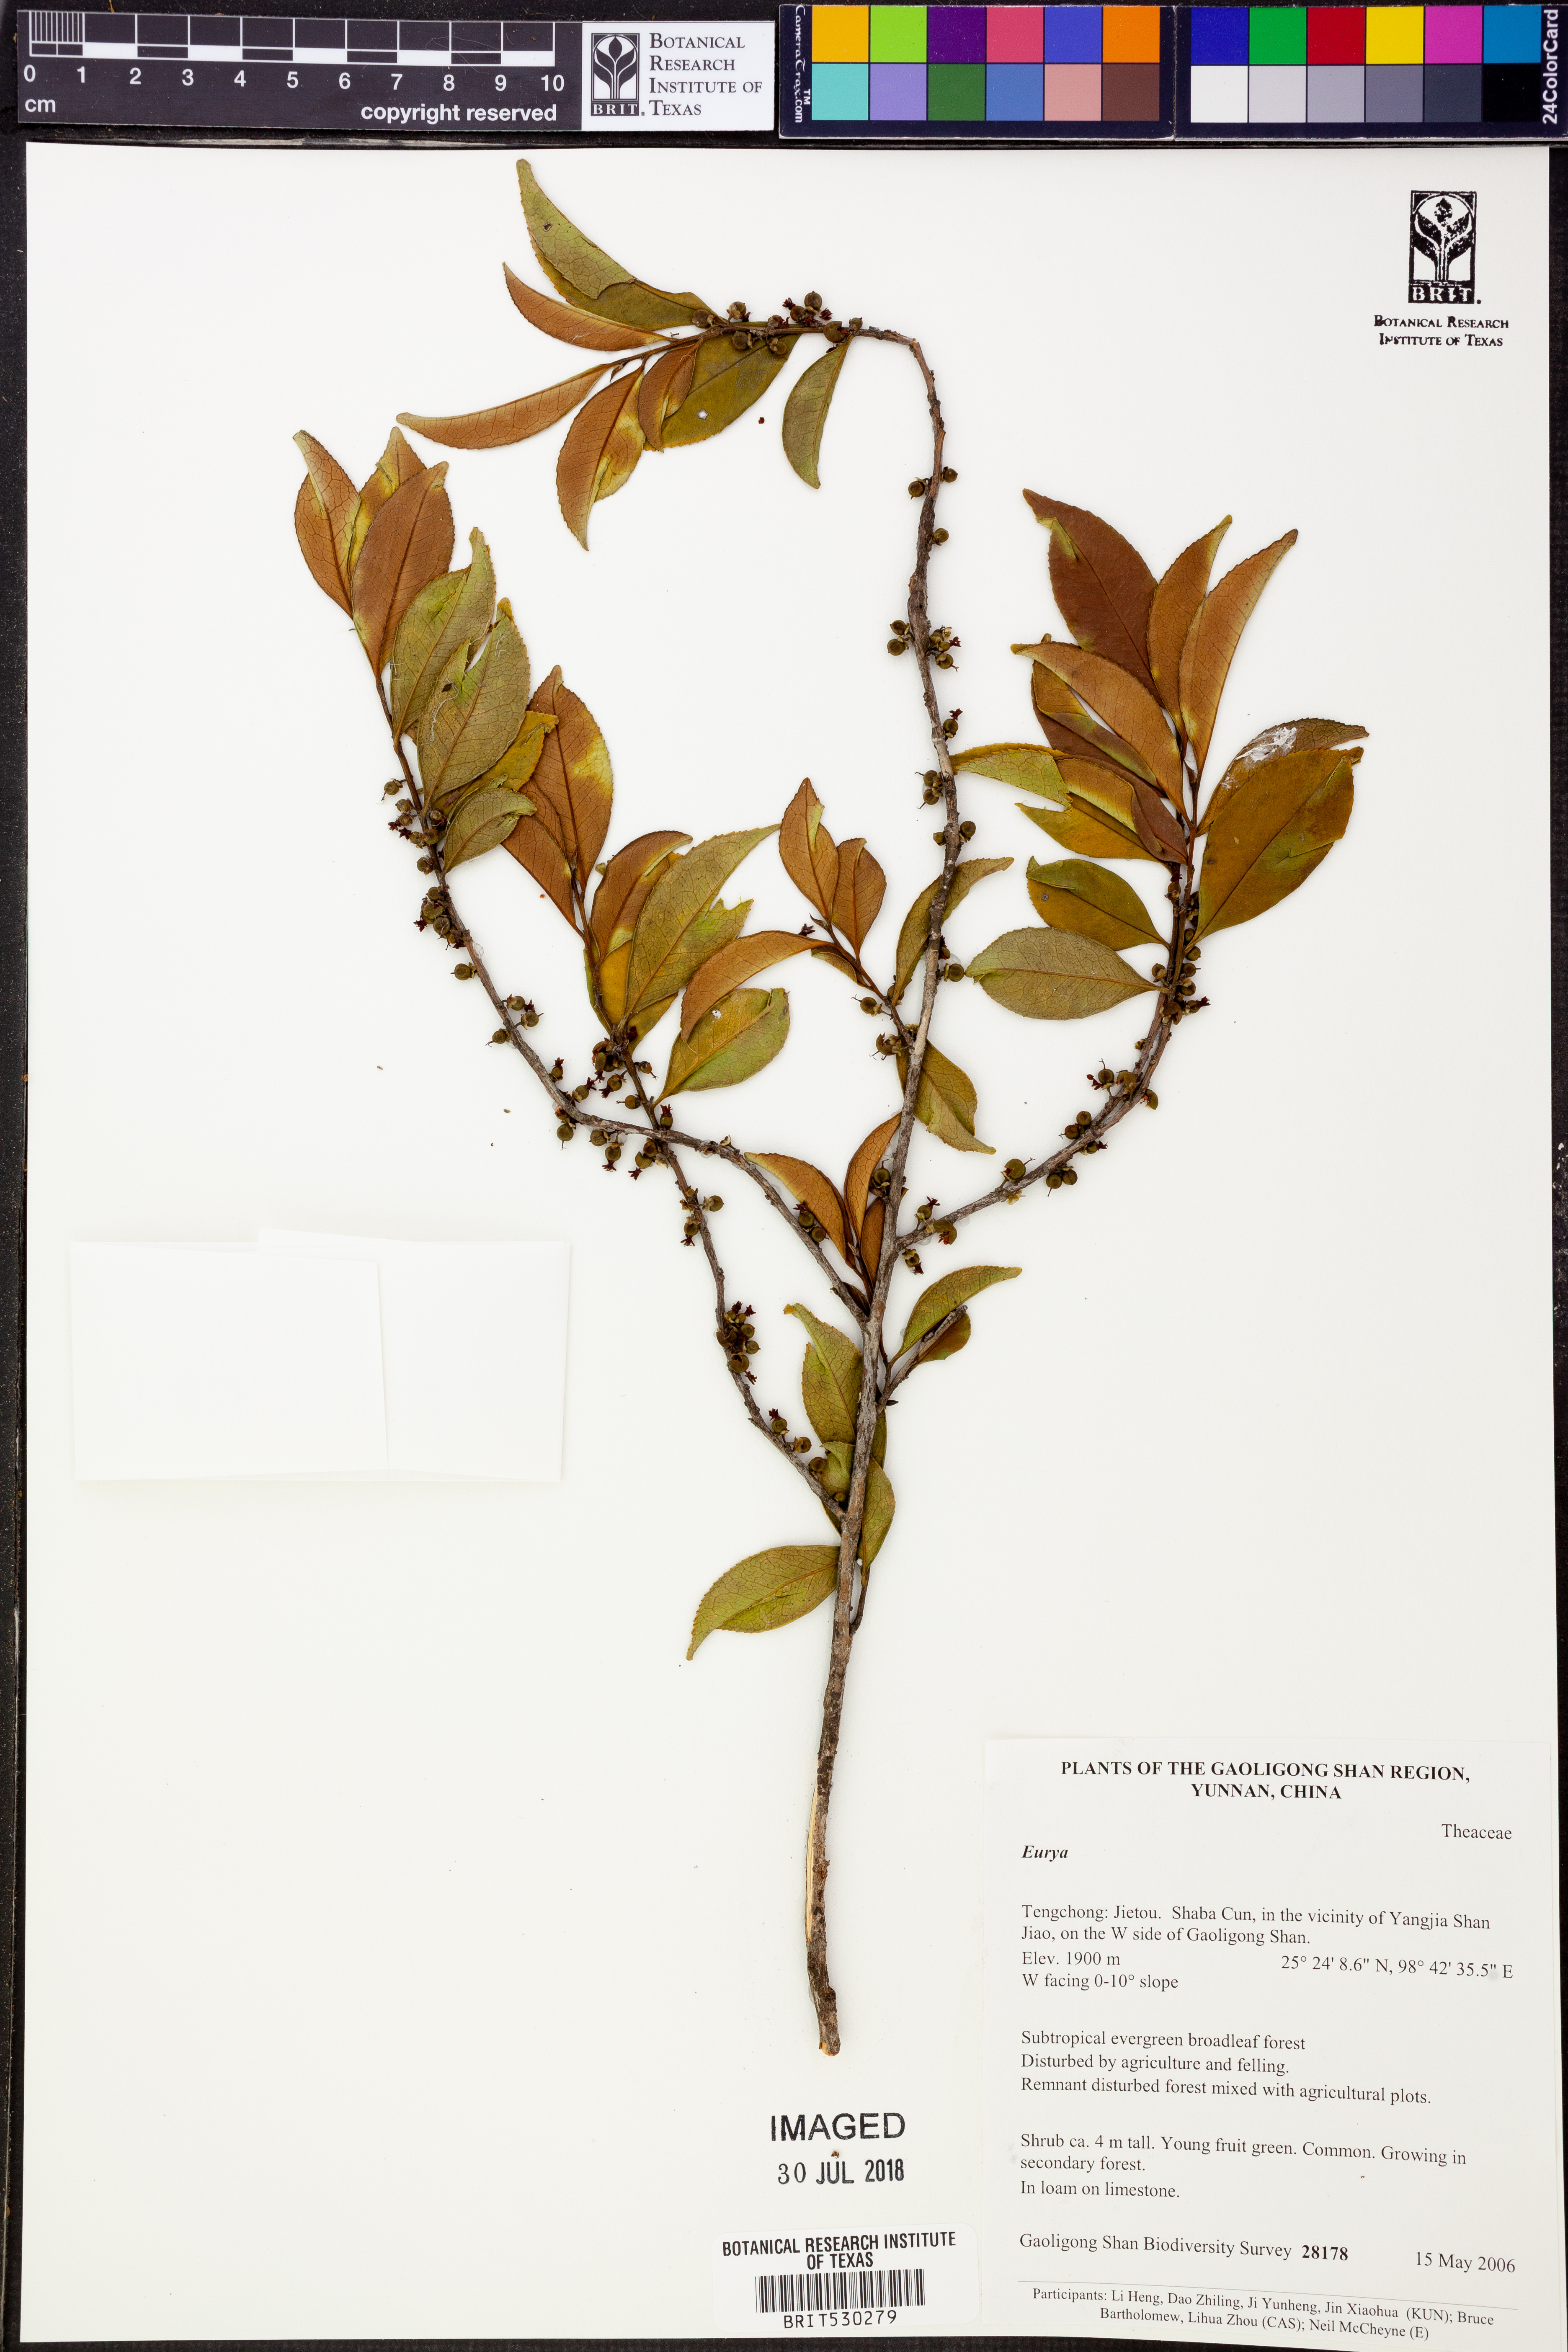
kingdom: Plantae
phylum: Tracheophyta
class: Magnoliopsida
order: Ericales
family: Pentaphylacaceae
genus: Eurya
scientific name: Eurya
